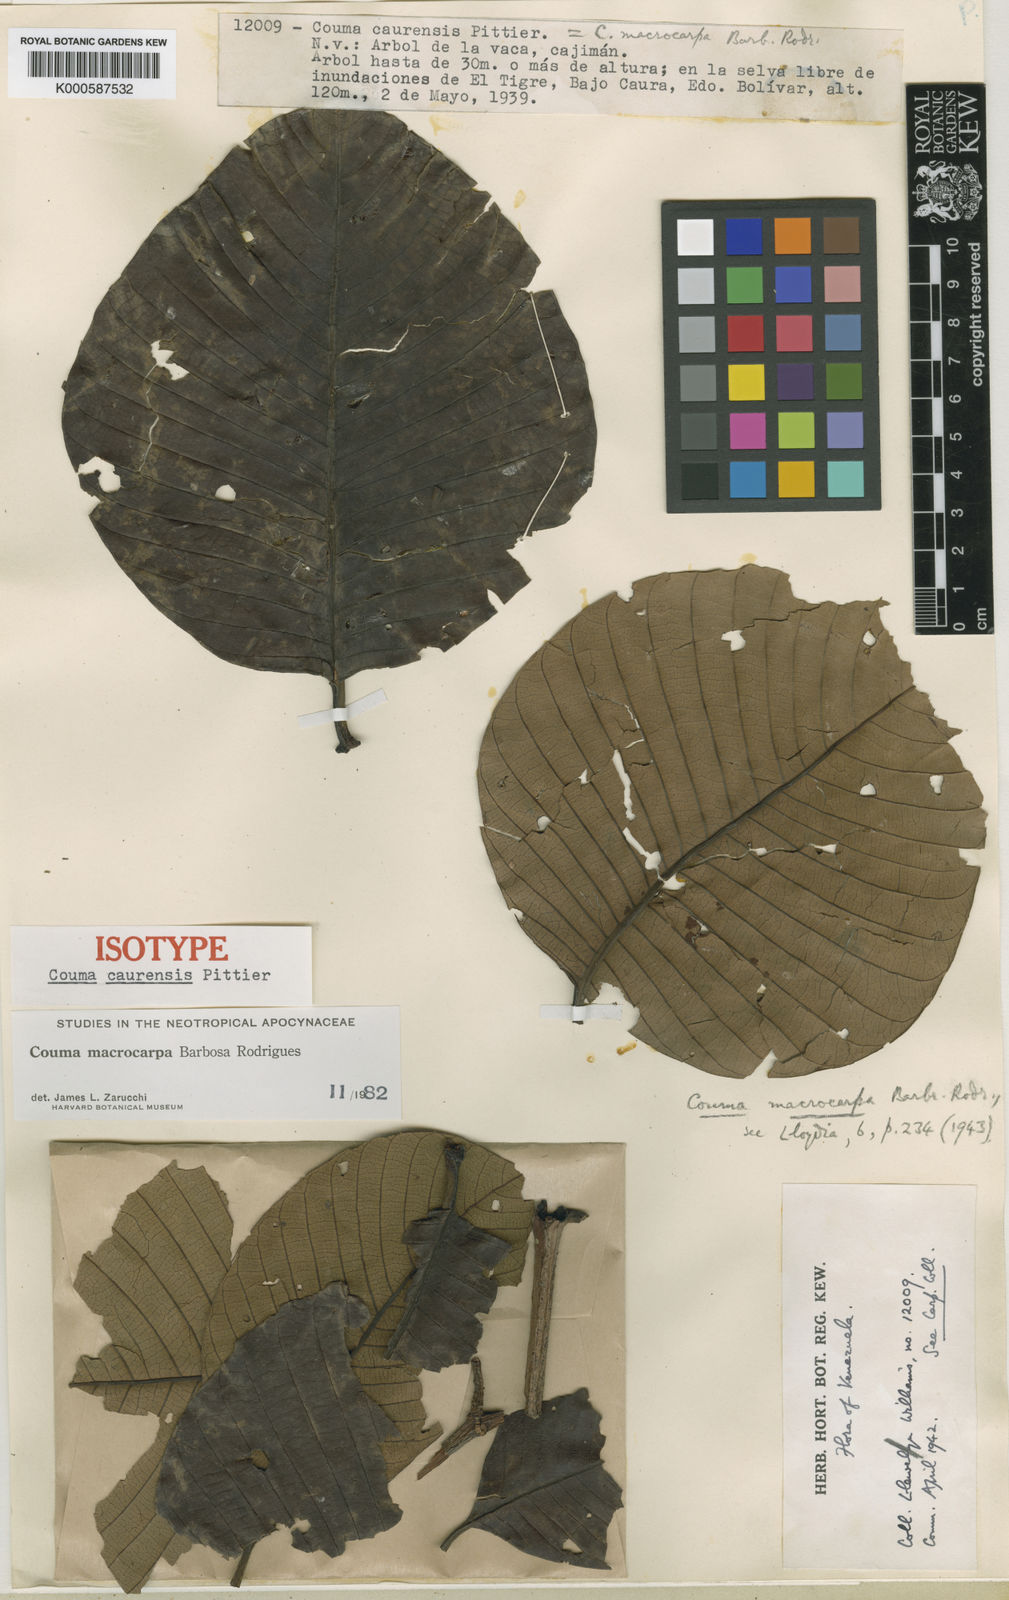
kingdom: Plantae
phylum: Tracheophyta
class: Magnoliopsida
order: Gentianales
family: Apocynaceae
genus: Couma
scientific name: Couma macrocarpa
